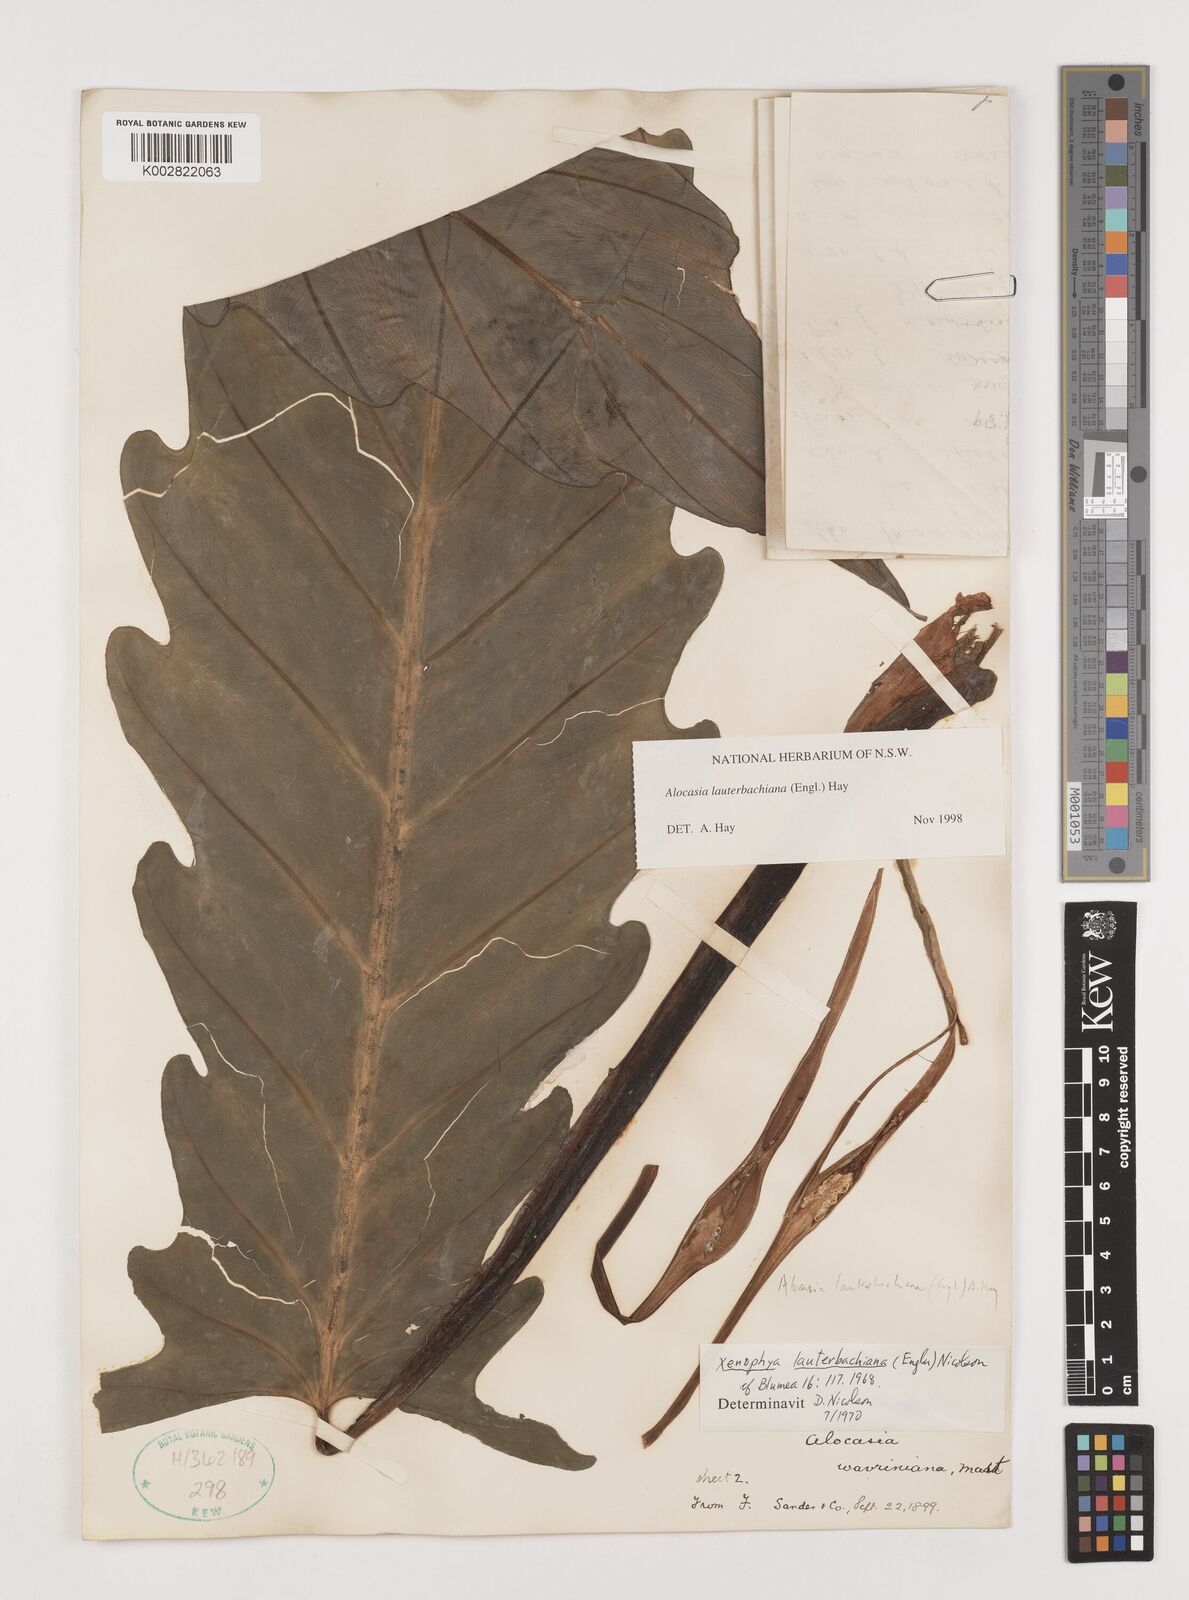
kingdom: Plantae
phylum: Tracheophyta
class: Liliopsida
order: Alismatales
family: Araceae
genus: Alocasia
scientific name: Alocasia lauterbachiana
